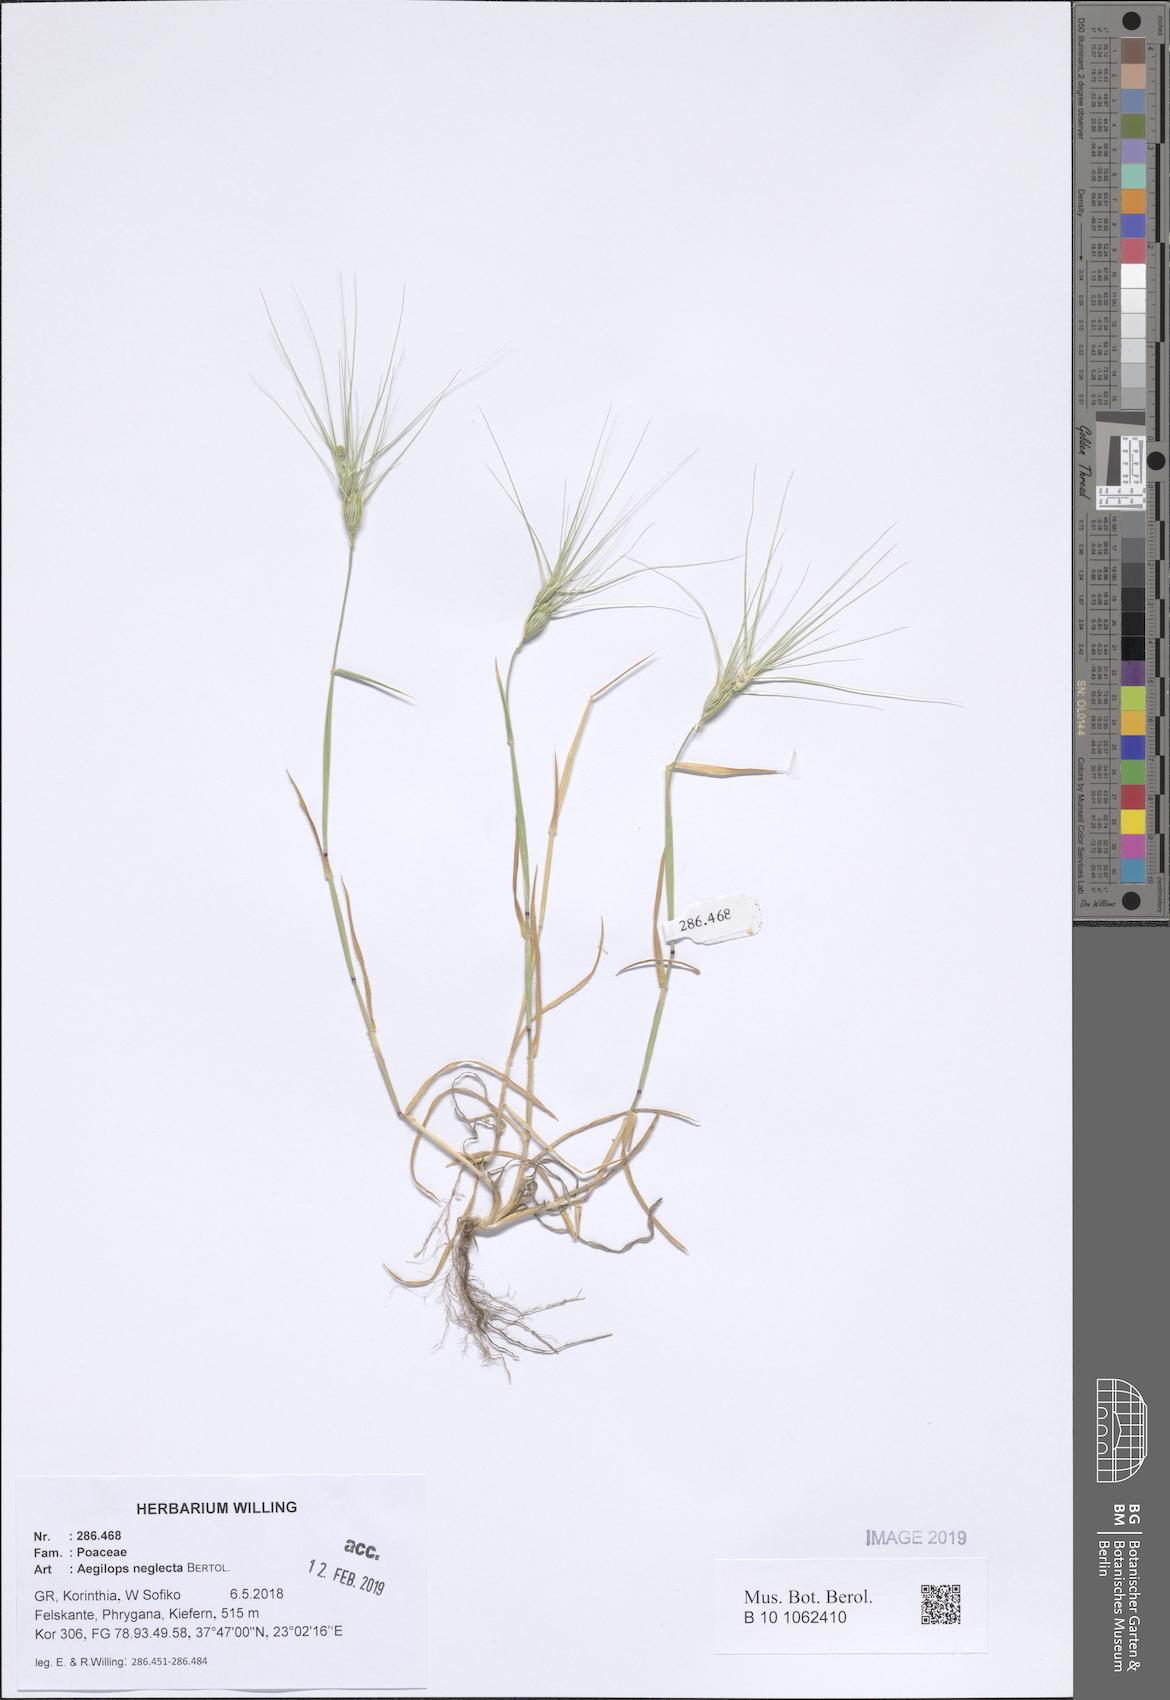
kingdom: Plantae
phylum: Tracheophyta
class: Liliopsida
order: Poales
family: Poaceae
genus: Aegilops
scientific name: Aegilops neglecta
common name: Three-awn goat grass
